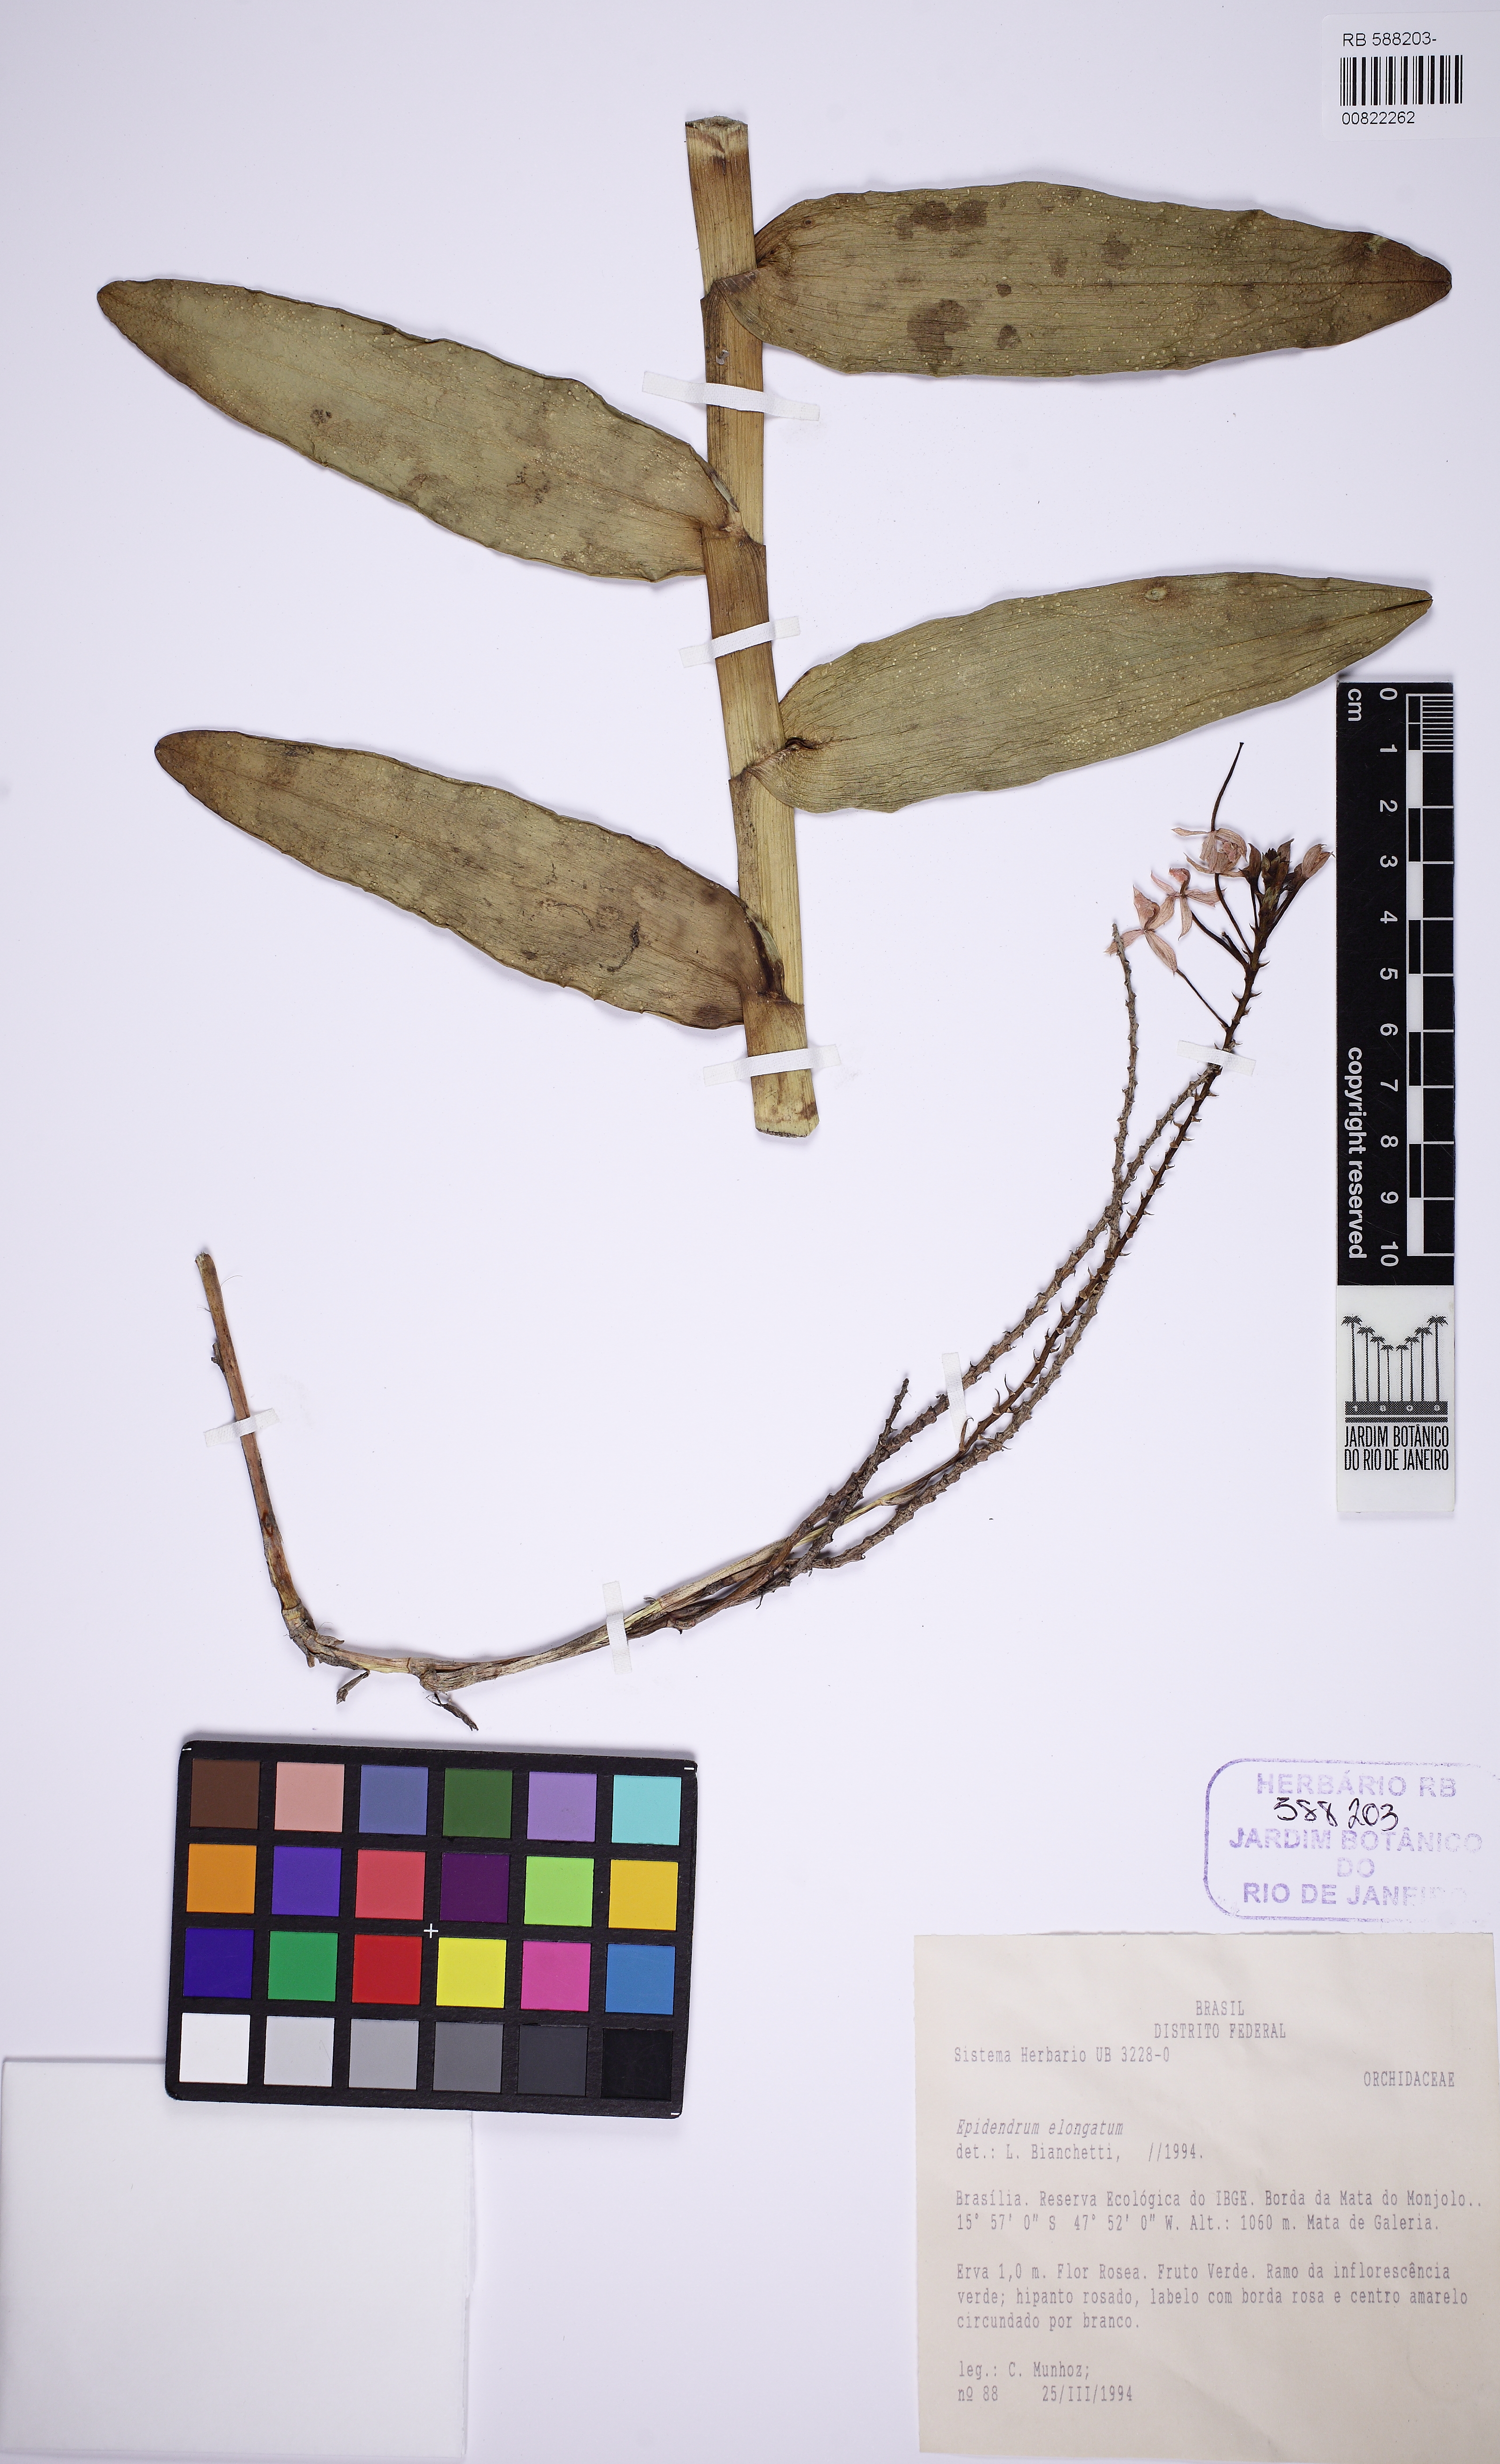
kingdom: Plantae
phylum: Tracheophyta
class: Liliopsida
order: Asparagales
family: Orchidaceae
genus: Epidendrum
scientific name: Epidendrum secundum
